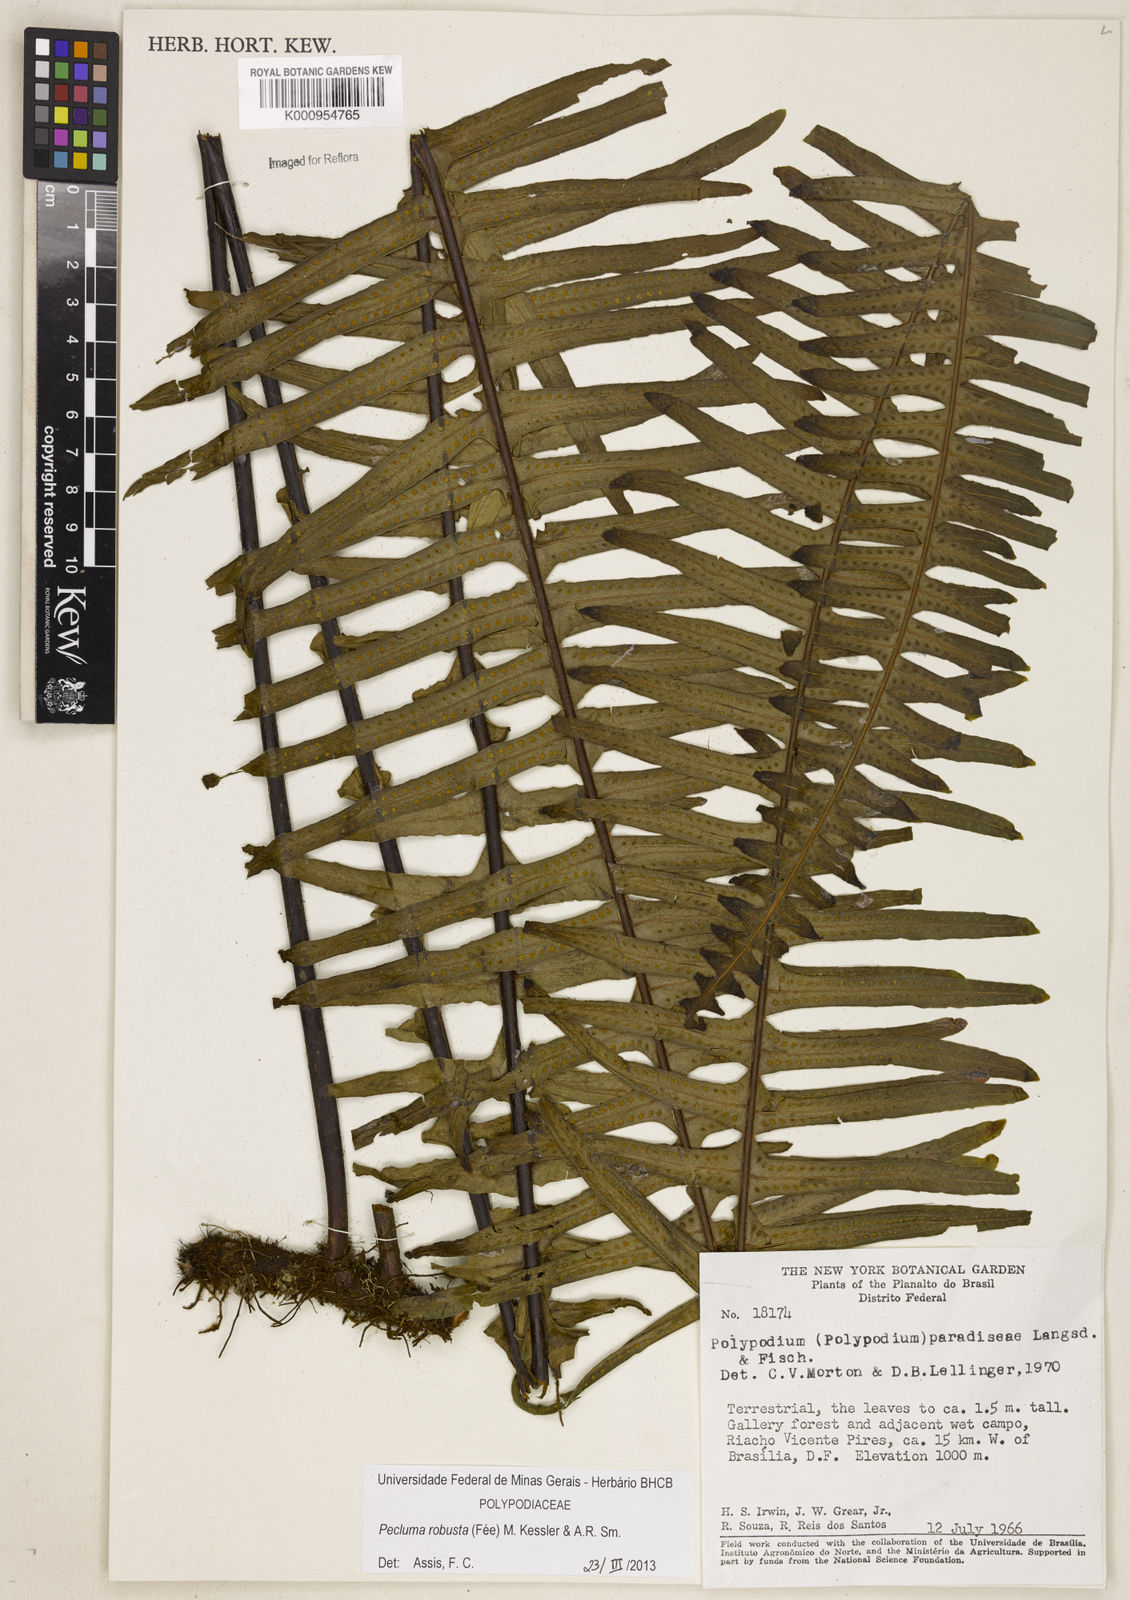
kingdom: Plantae
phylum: Tracheophyta
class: Polypodiopsida
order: Polypodiales
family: Polypodiaceae
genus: Pecluma
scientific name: Pecluma
